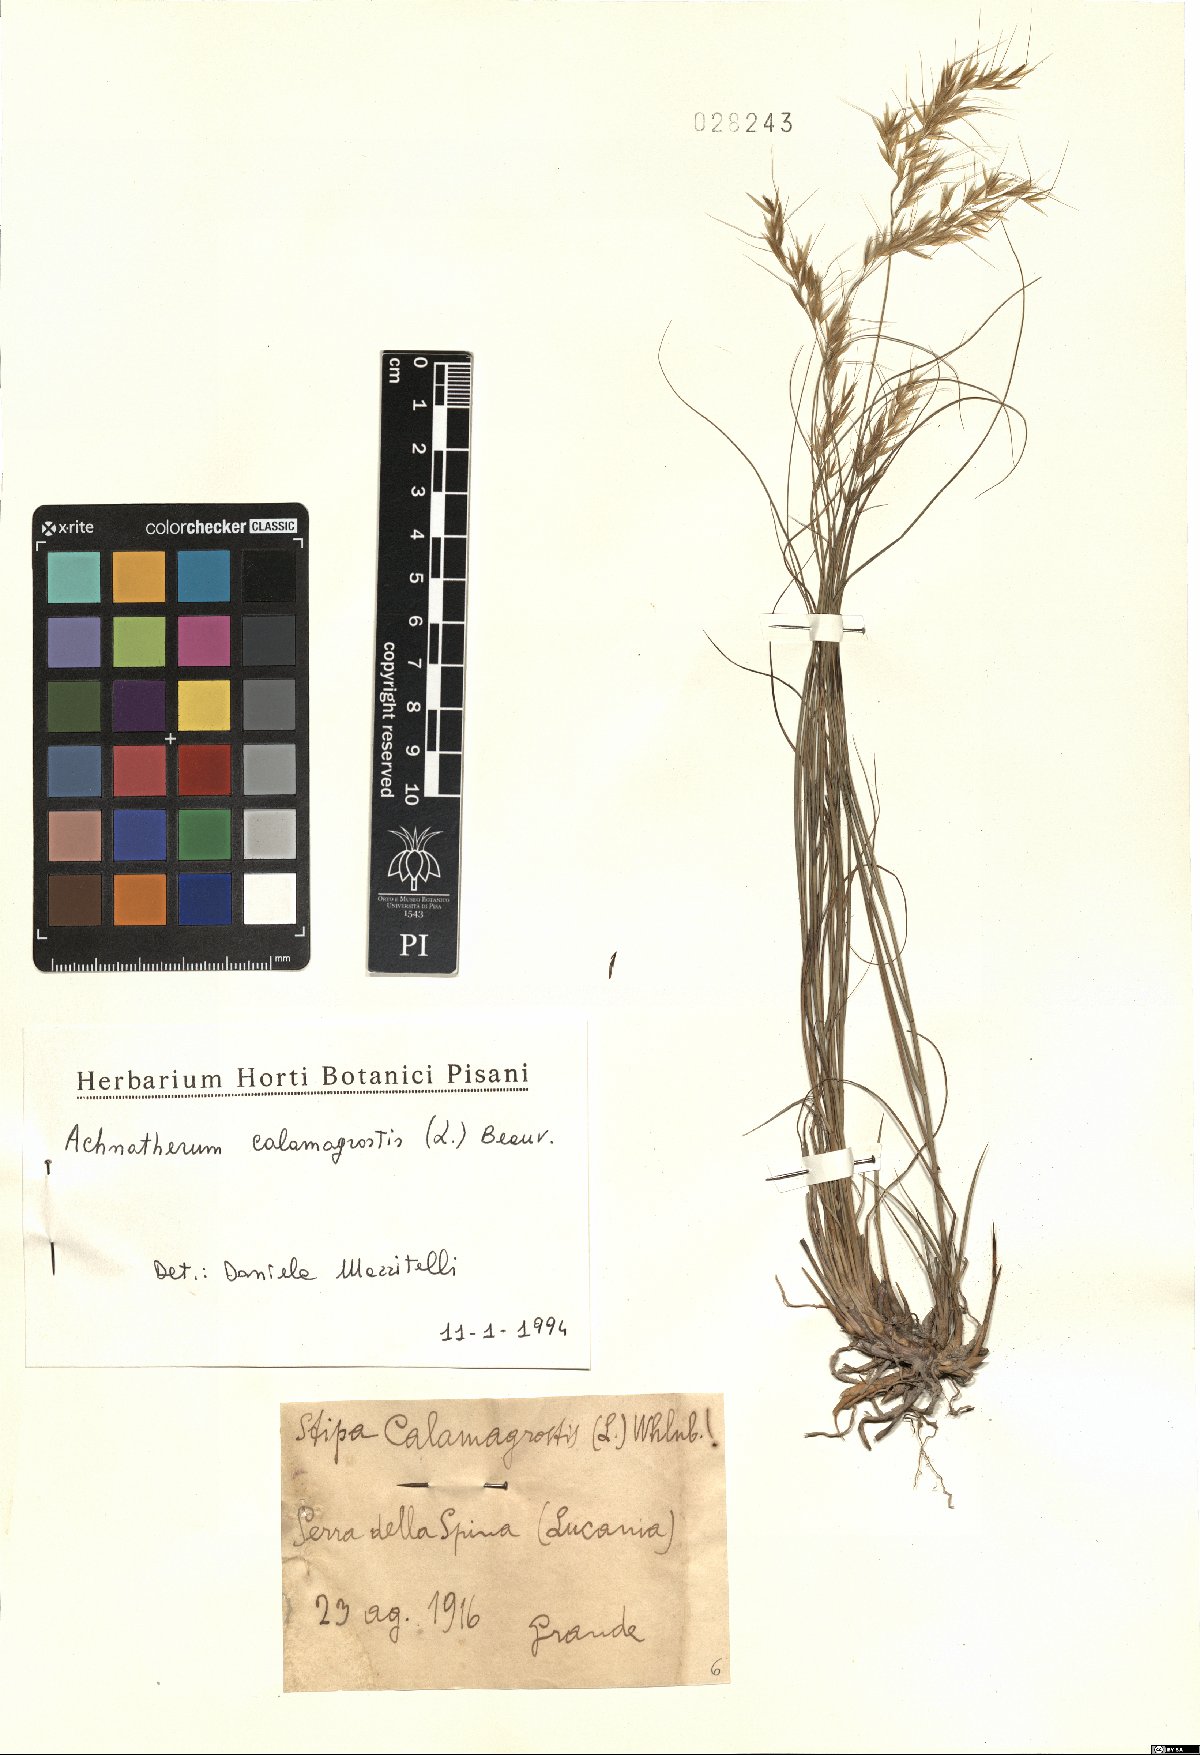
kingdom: Plantae
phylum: Tracheophyta
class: Liliopsida
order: Poales
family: Poaceae
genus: Achnatherum
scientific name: Achnatherum calamagrostis
